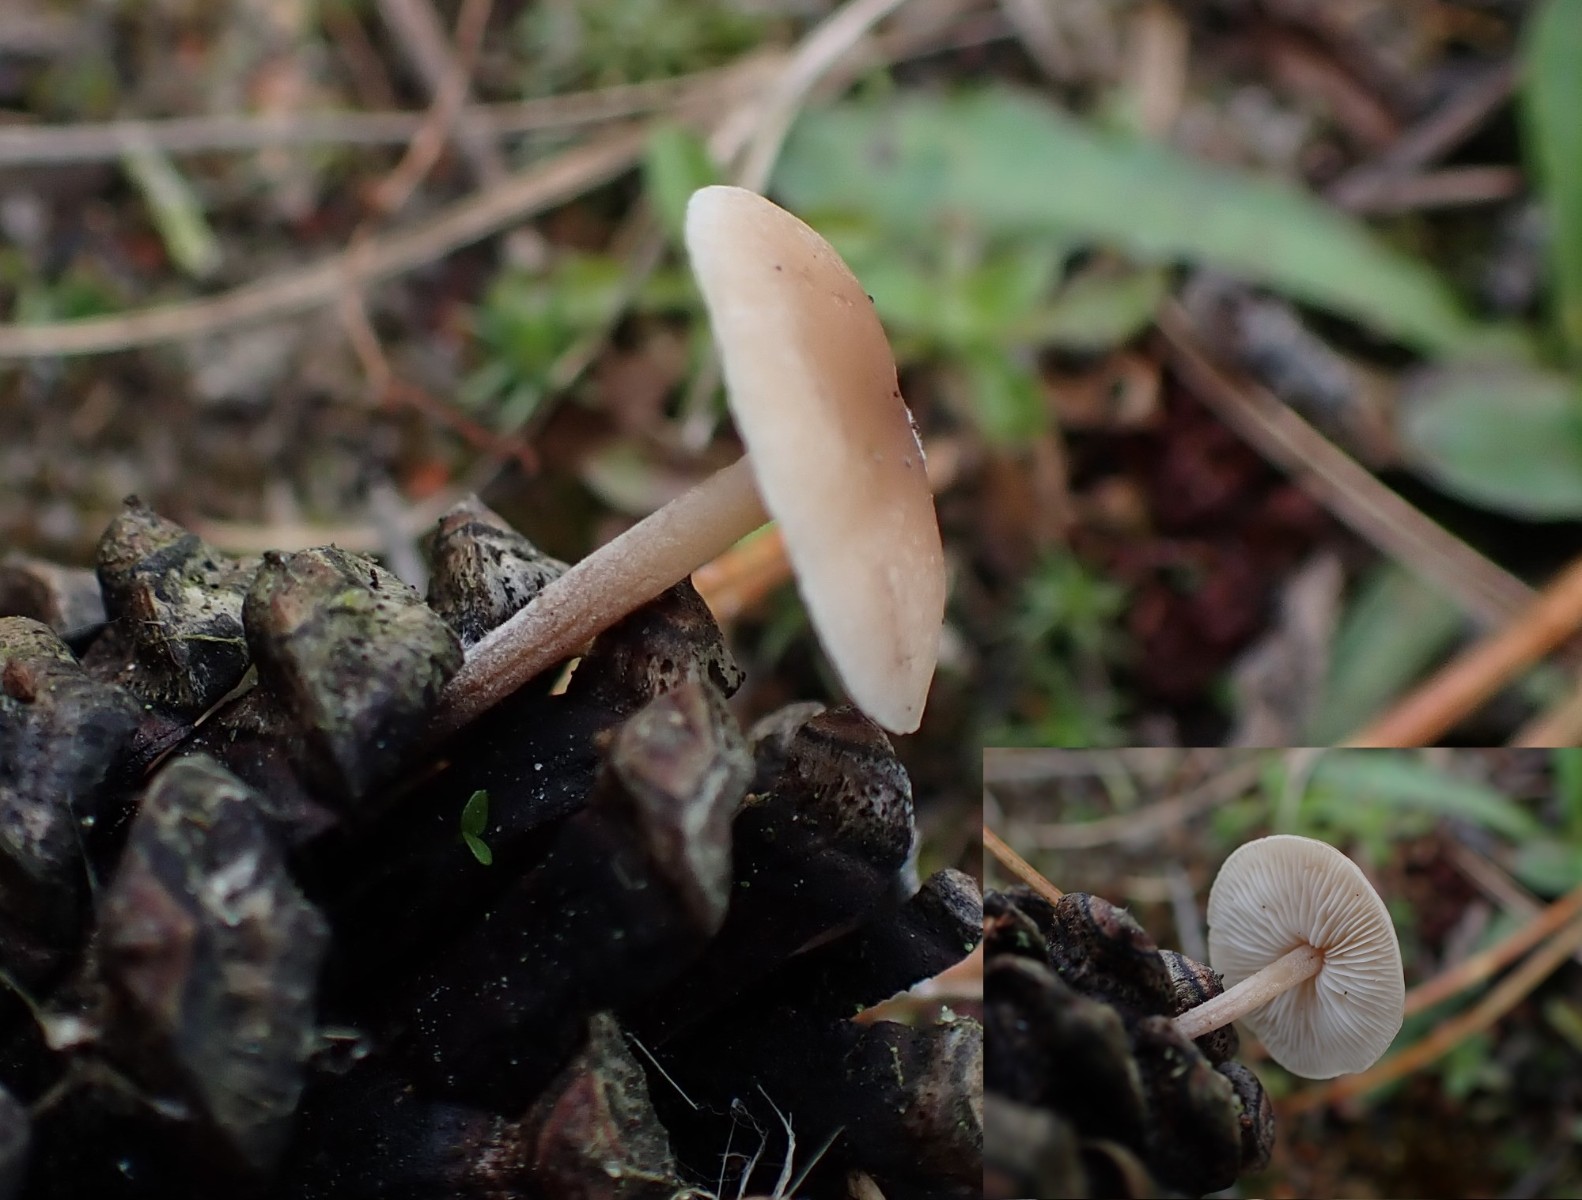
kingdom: Fungi
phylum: Basidiomycota
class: Agaricomycetes
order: Agaricales
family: Marasmiaceae
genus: Baeospora
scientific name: Baeospora myosura
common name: koglebruskhat
